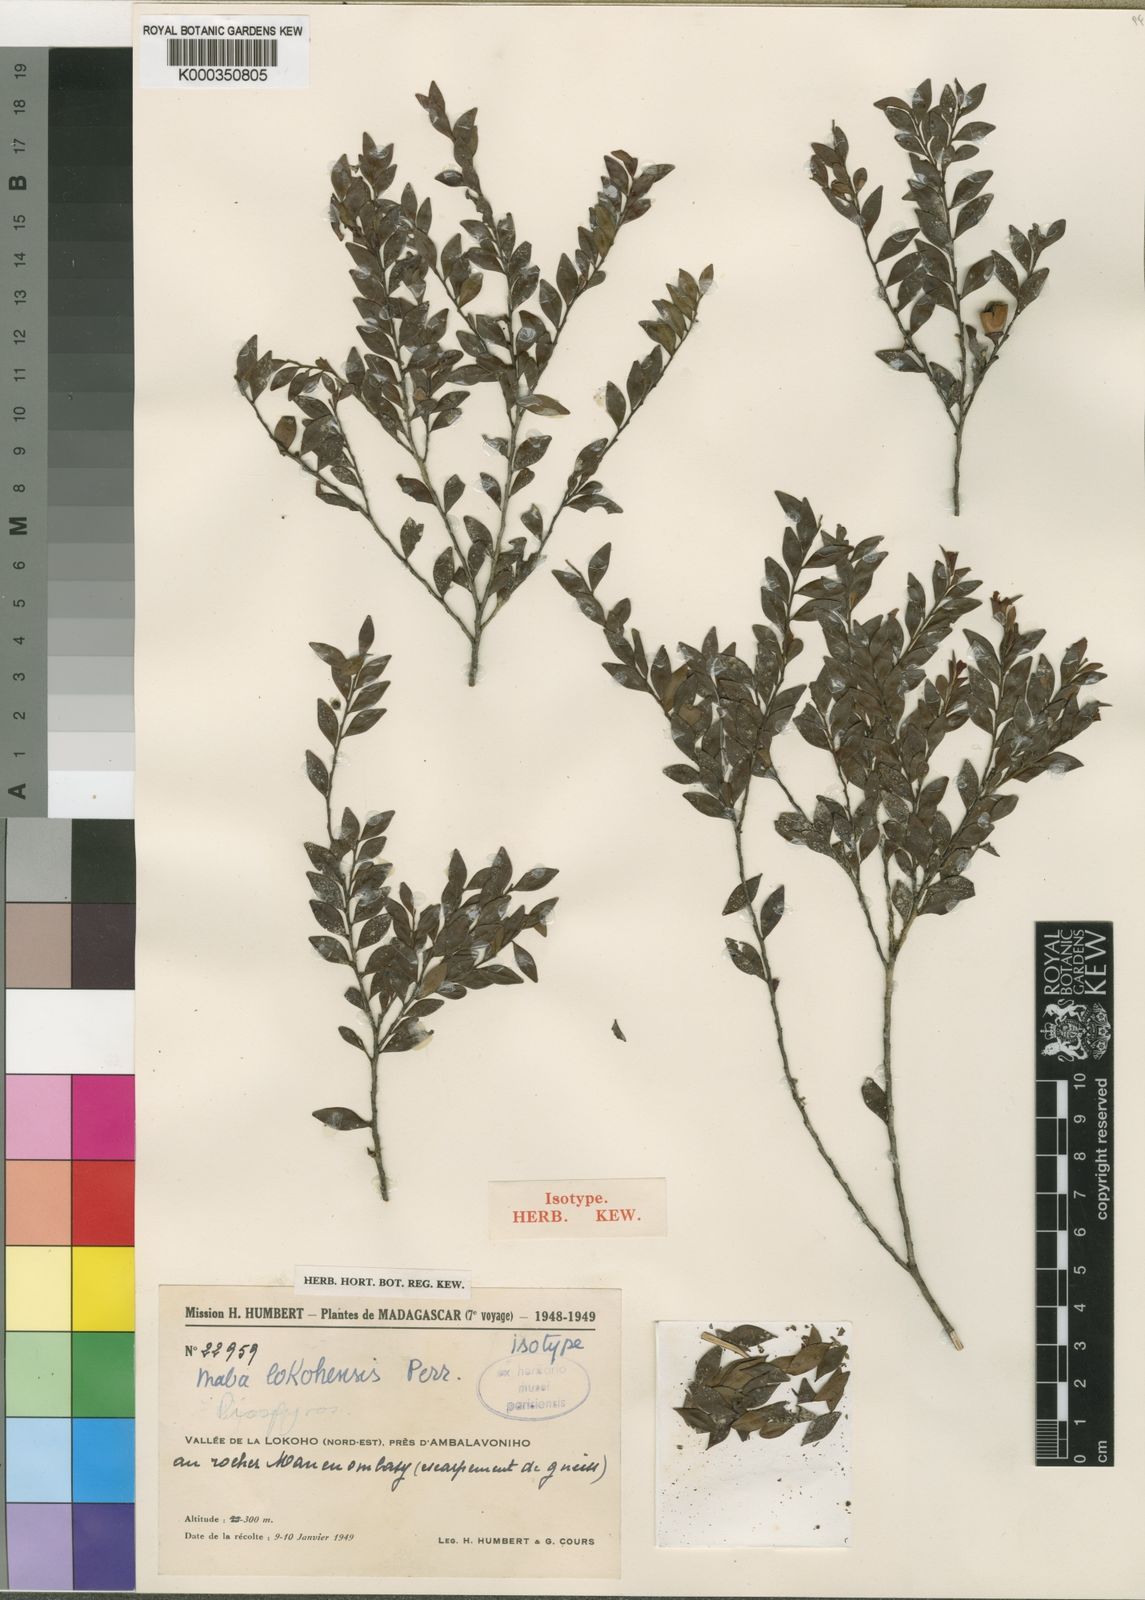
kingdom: Plantae
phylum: Tracheophyta
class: Magnoliopsida
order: Ericales
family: Ebenaceae
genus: Diospyros
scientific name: Diospyros lokohensis
